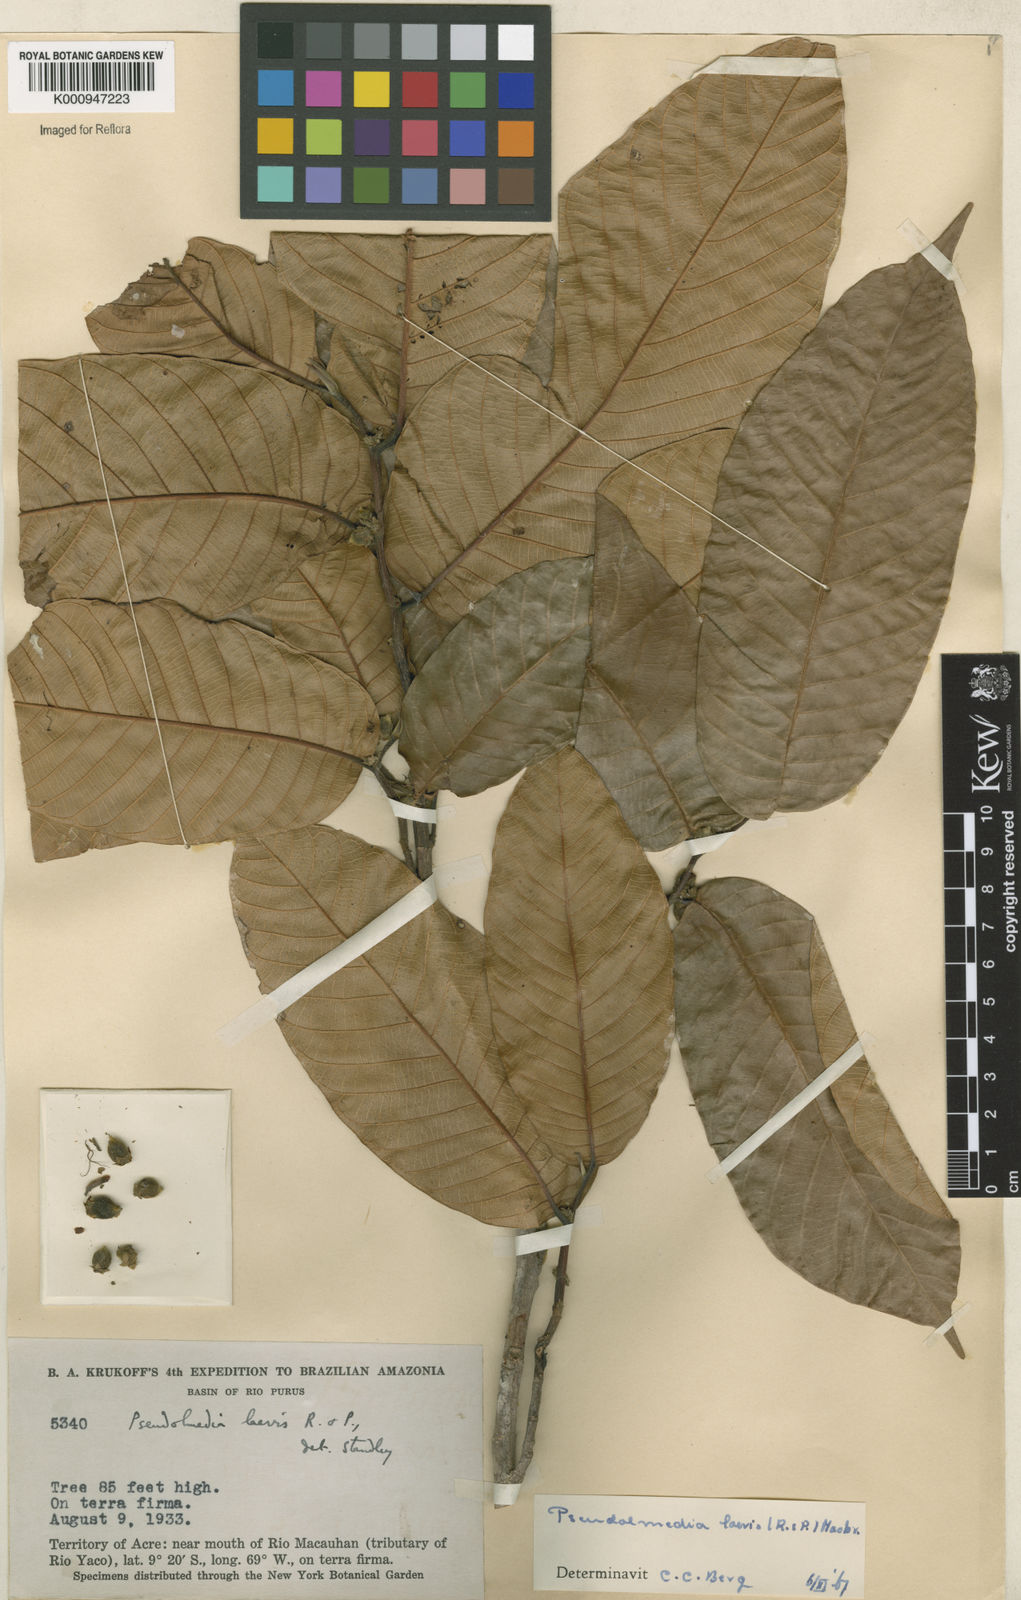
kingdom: Plantae
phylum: Tracheophyta
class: Magnoliopsida
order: Rosales
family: Moraceae
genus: Pseudolmedia
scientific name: Pseudolmedia laevis
